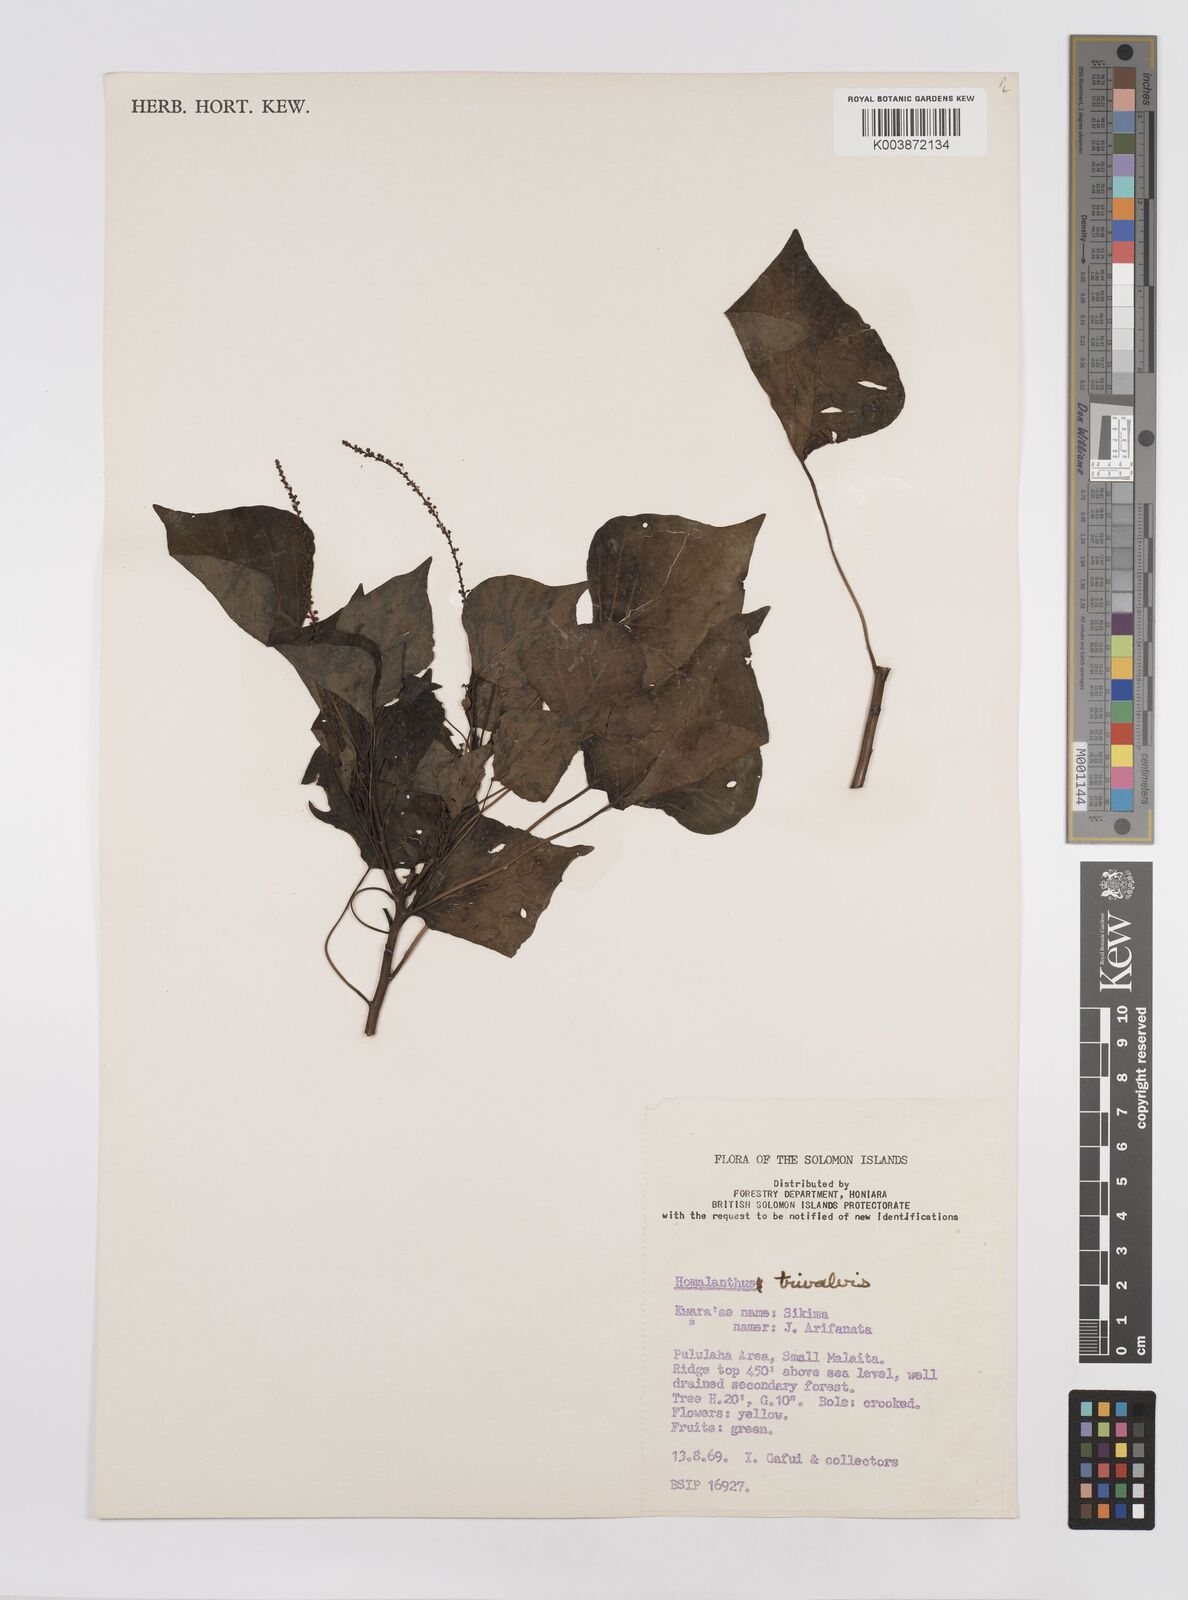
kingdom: Plantae
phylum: Tracheophyta
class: Magnoliopsida
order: Malpighiales
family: Euphorbiaceae
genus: Homalanthus
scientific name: Homalanthus trivalvis
